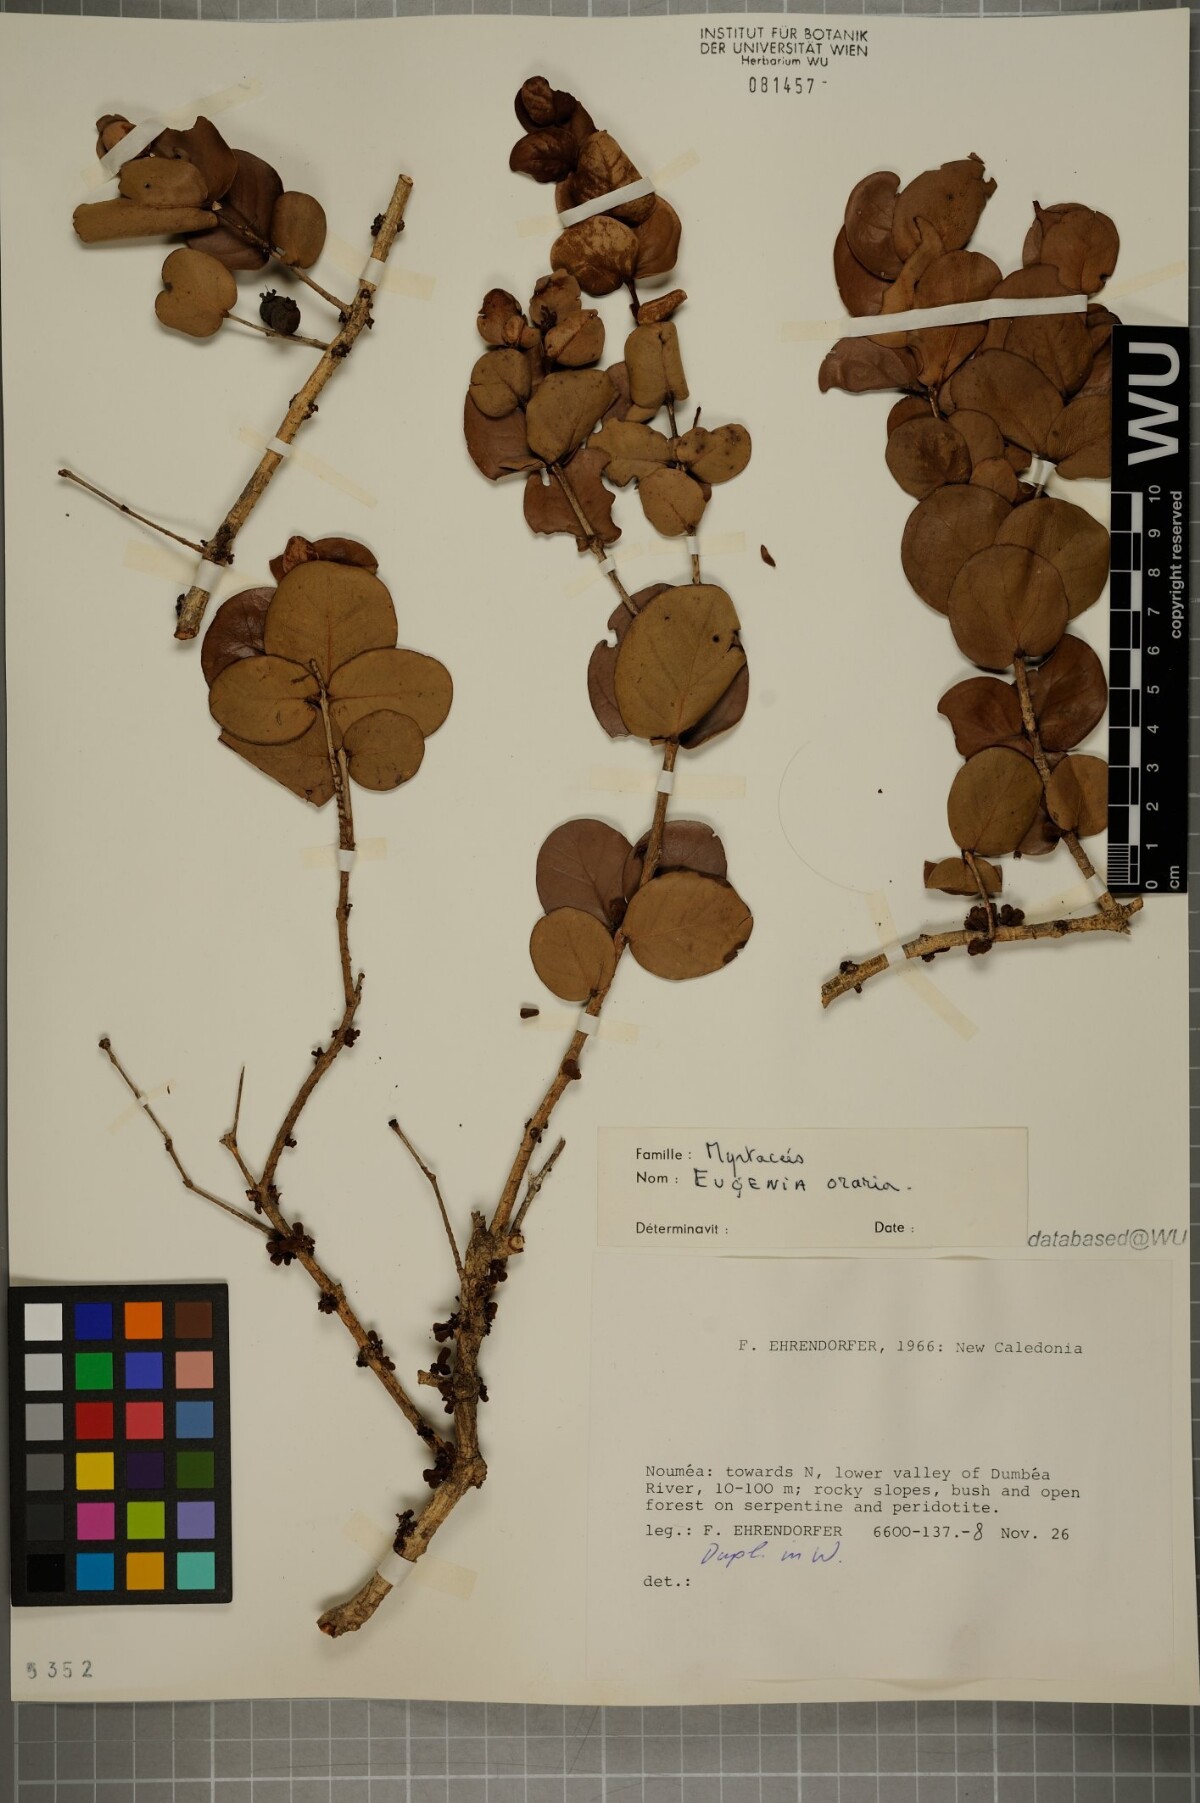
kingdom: Plantae
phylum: Tracheophyta
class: Magnoliopsida
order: Myrtales
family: Myrtaceae
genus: Eugenia
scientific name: Eugenia littoralis
